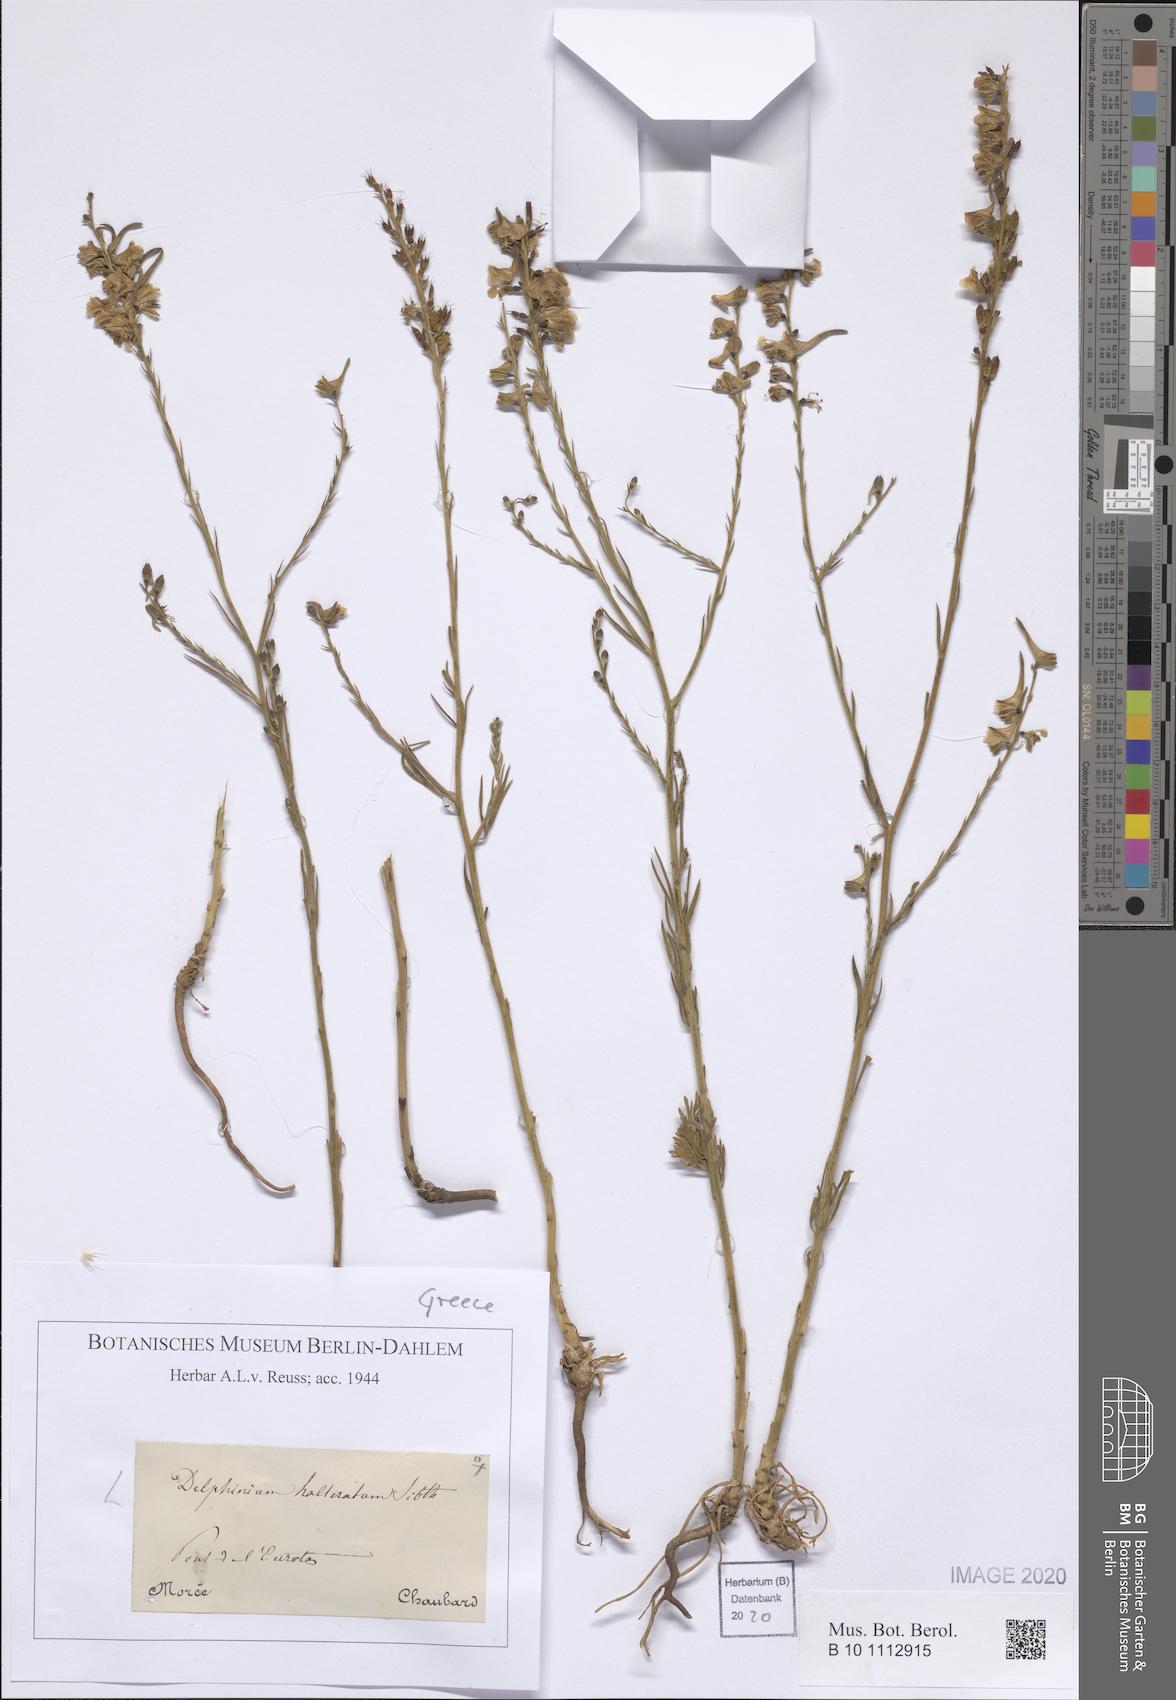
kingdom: Plantae
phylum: Tracheophyta
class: Magnoliopsida
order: Ranunculales
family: Ranunculaceae
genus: Delphinium
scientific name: Delphinium halteratum
